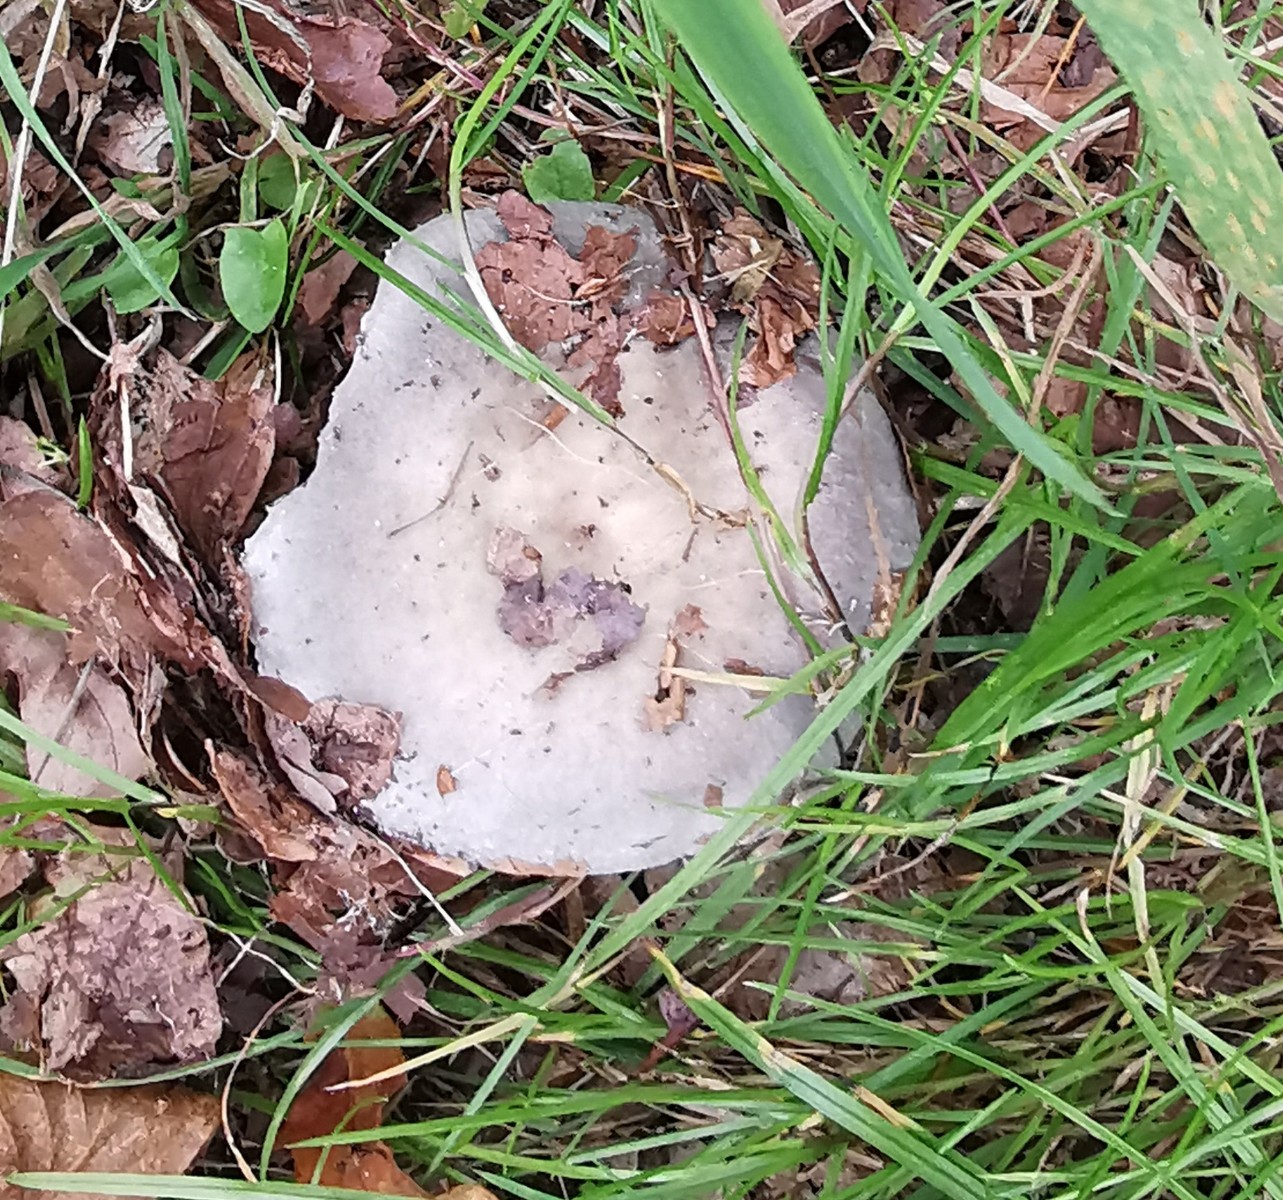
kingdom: Fungi
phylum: Basidiomycota
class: Agaricomycetes
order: Russulales
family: Russulaceae
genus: Russula
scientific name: Russula
